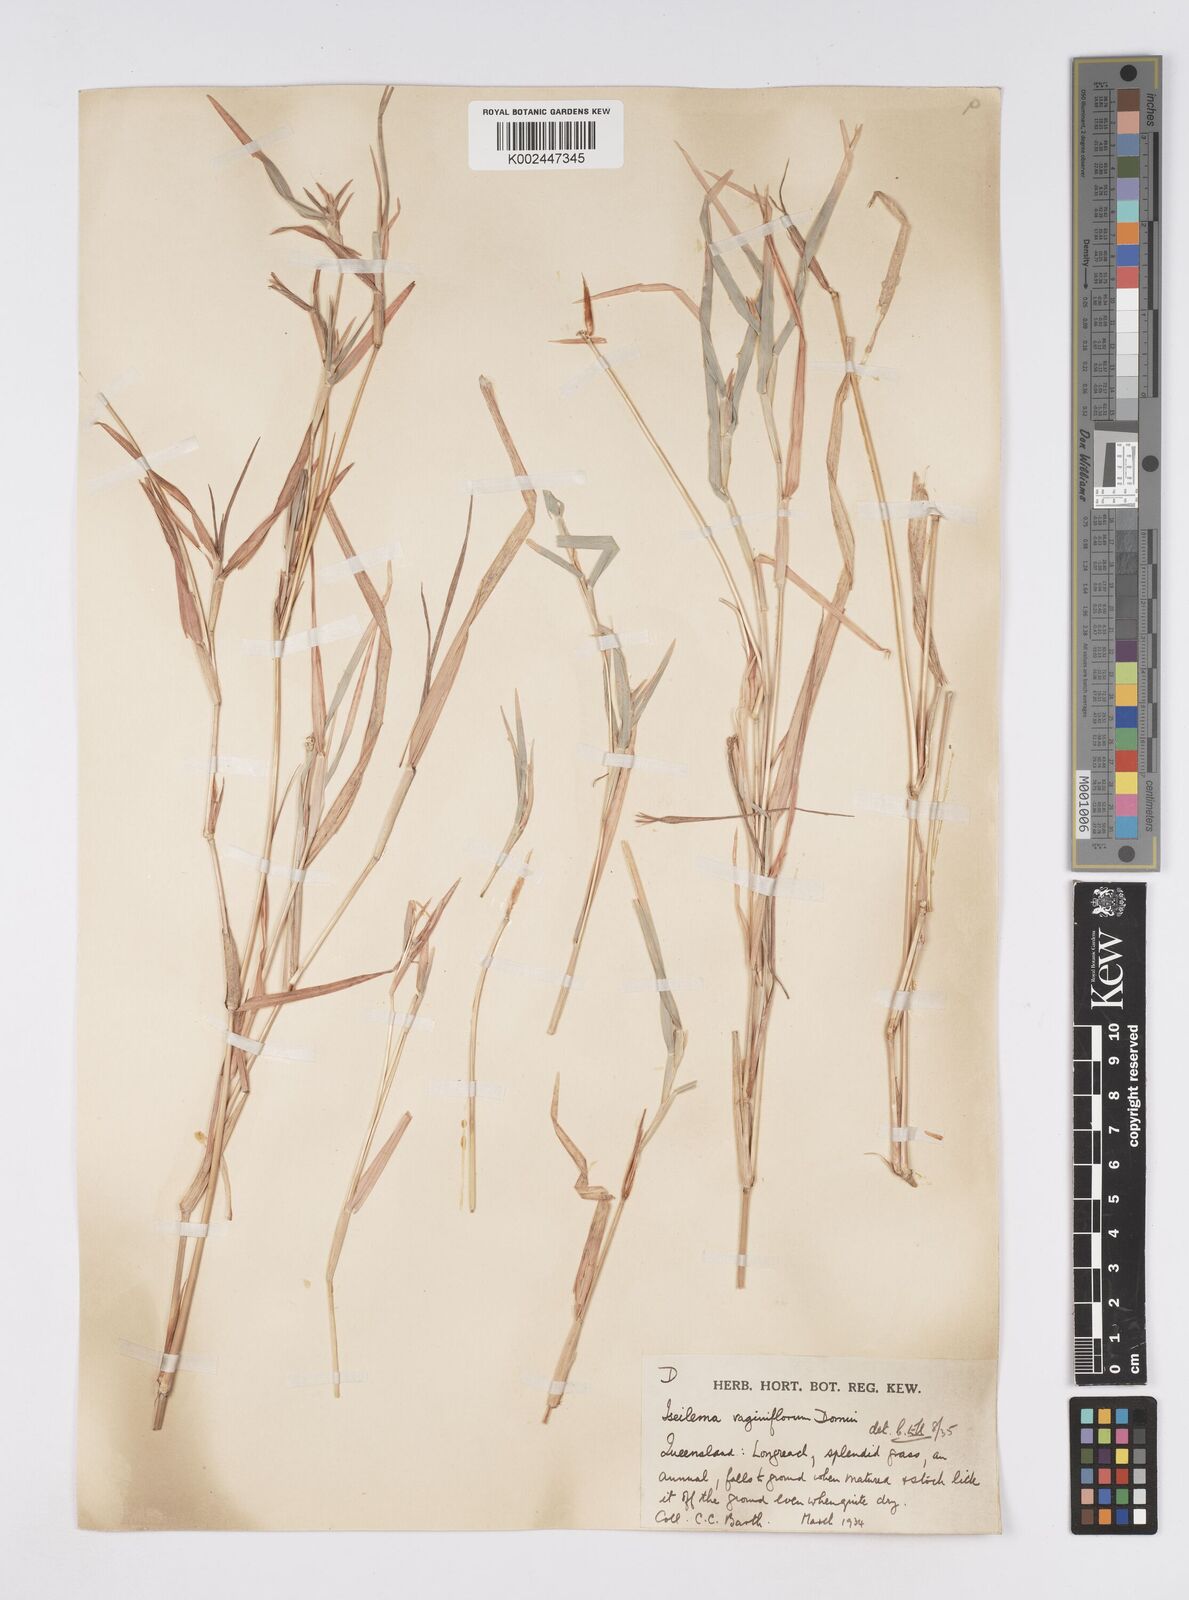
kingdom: Plantae
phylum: Tracheophyta
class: Liliopsida
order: Poales
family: Poaceae
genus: Iseilema
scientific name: Iseilema vaginiflorum
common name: Red flinders grass
